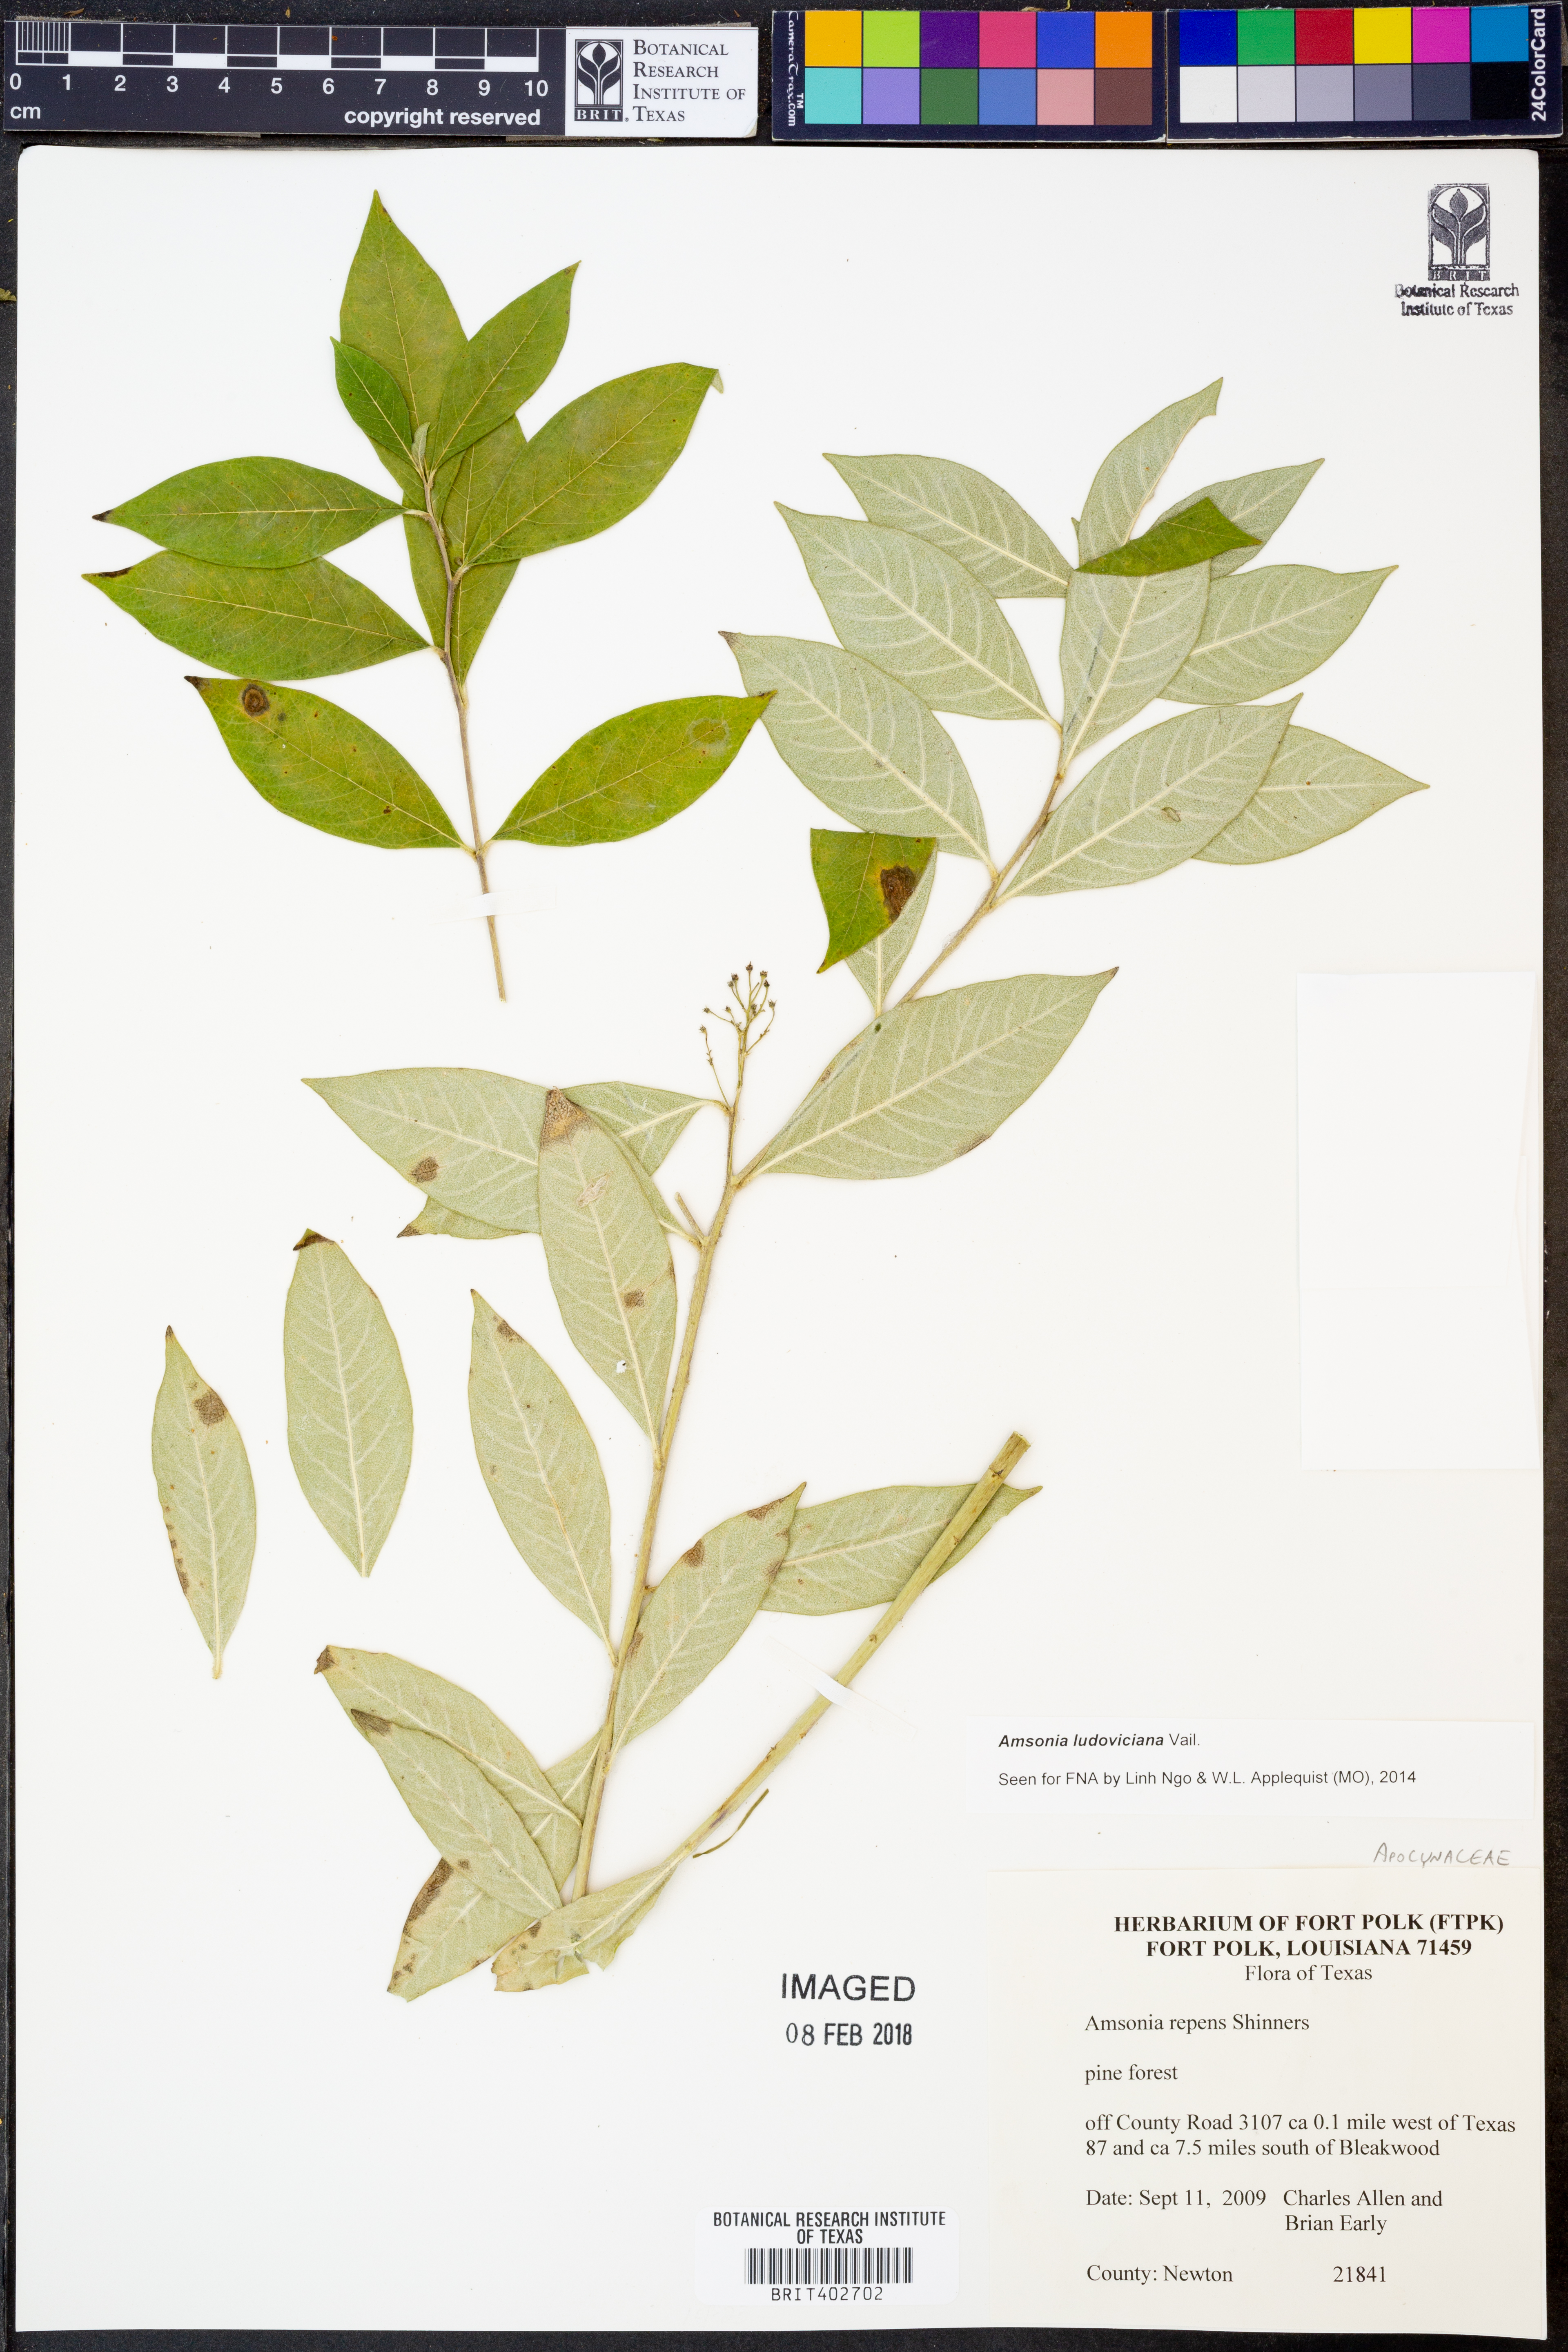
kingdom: Plantae
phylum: Tracheophyta
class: Magnoliopsida
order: Gentianales
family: Apocynaceae
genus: Amsonia
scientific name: Amsonia ludoviciana
